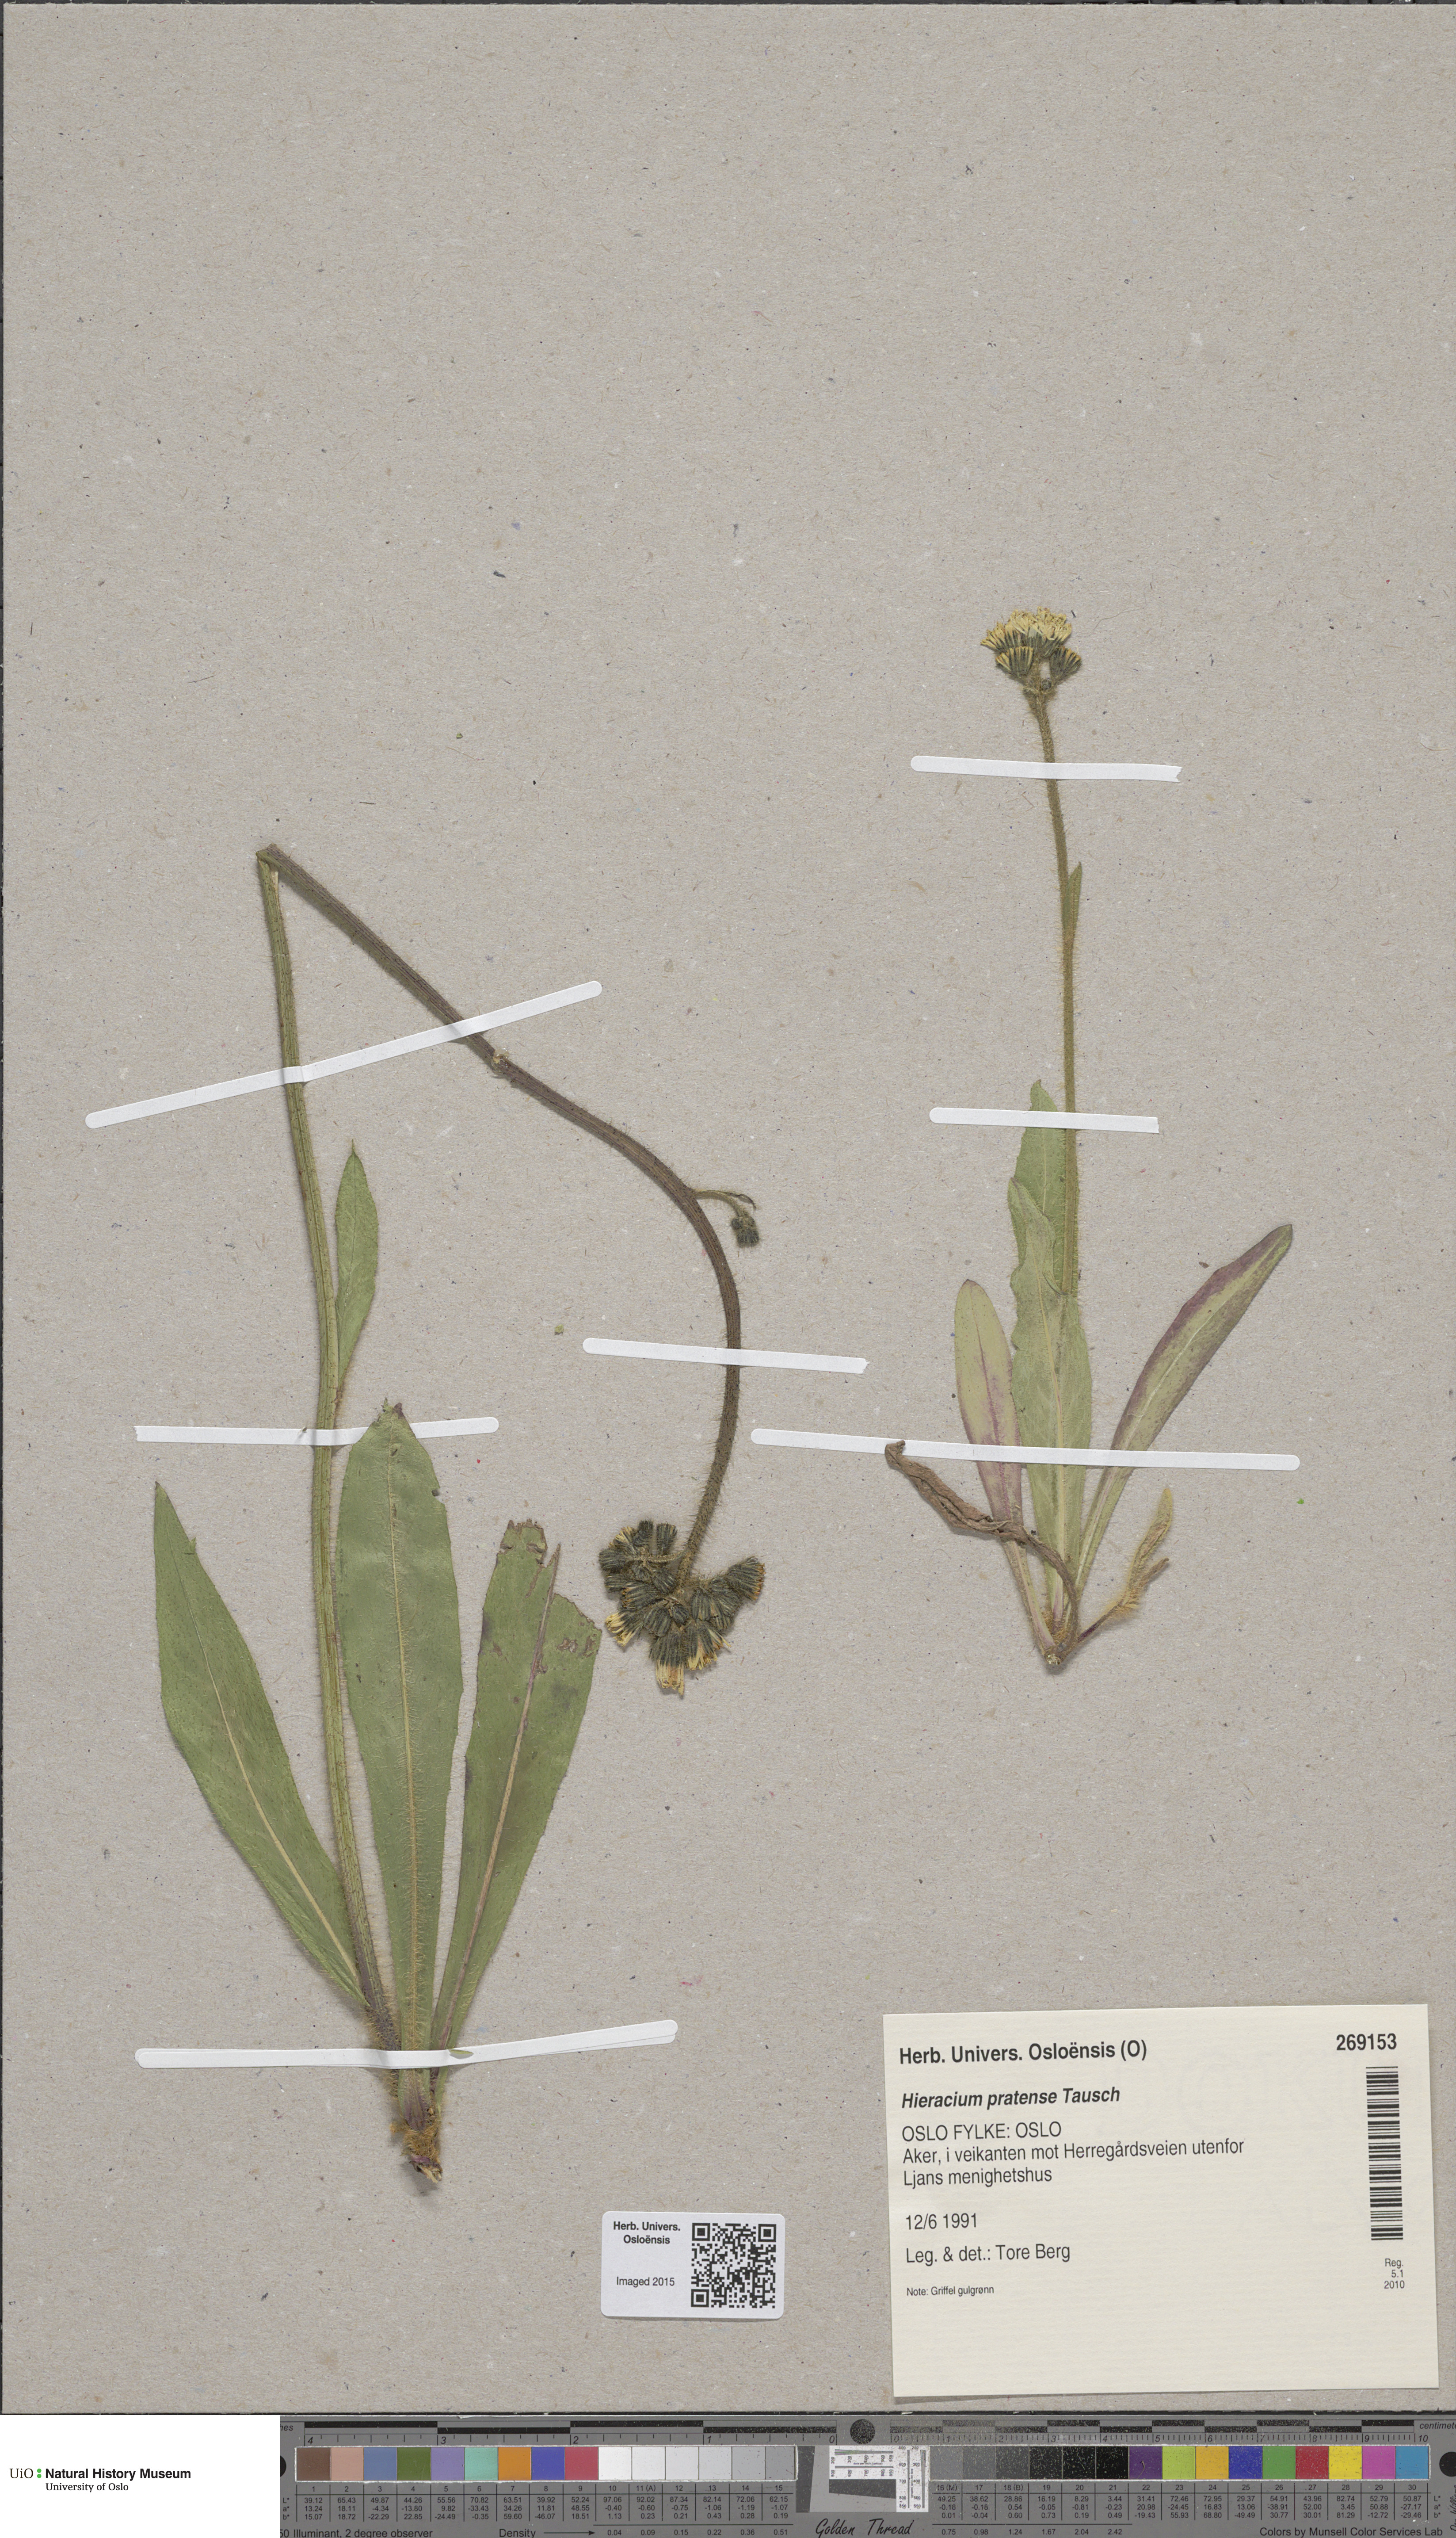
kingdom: Plantae
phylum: Tracheophyta
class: Magnoliopsida
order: Asterales
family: Asteraceae
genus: Pilosella
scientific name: Pilosella caespitosa
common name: Yellow fox-and-cubs
